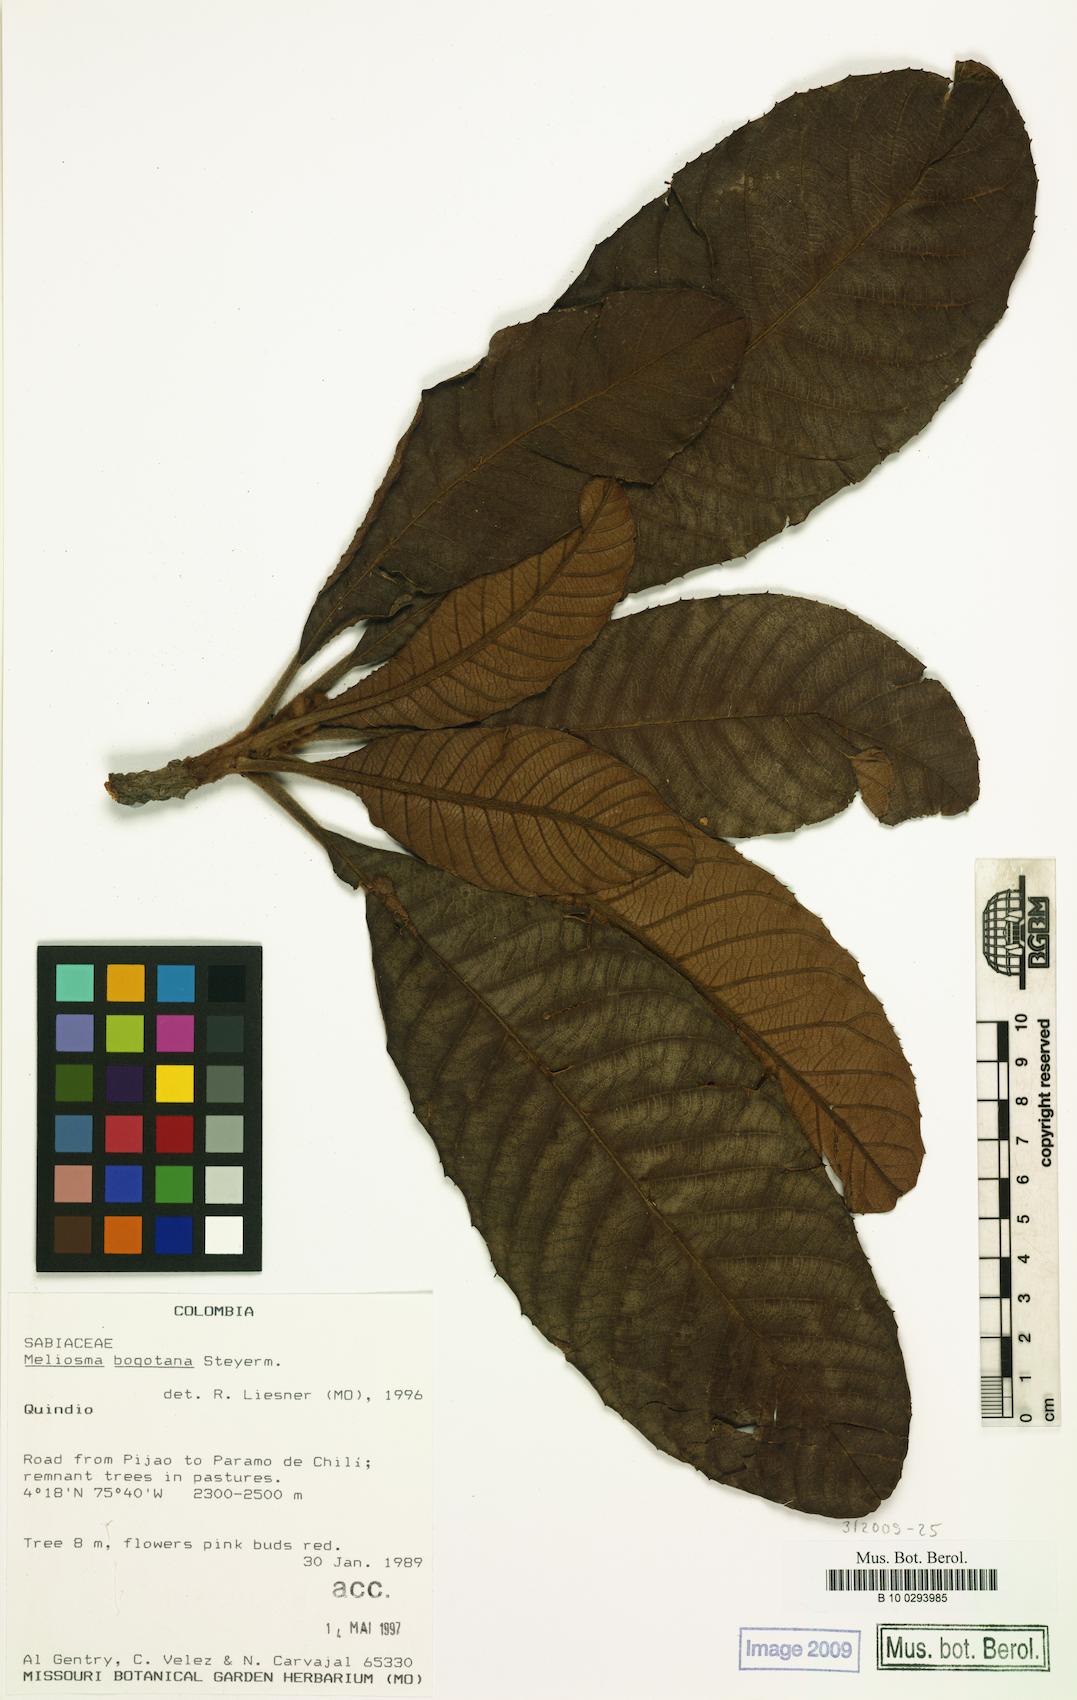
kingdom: Plantae
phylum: Tracheophyta
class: Magnoliopsida
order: Proteales
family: Sabiaceae
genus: Meliosma
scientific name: Meliosma bogotana
